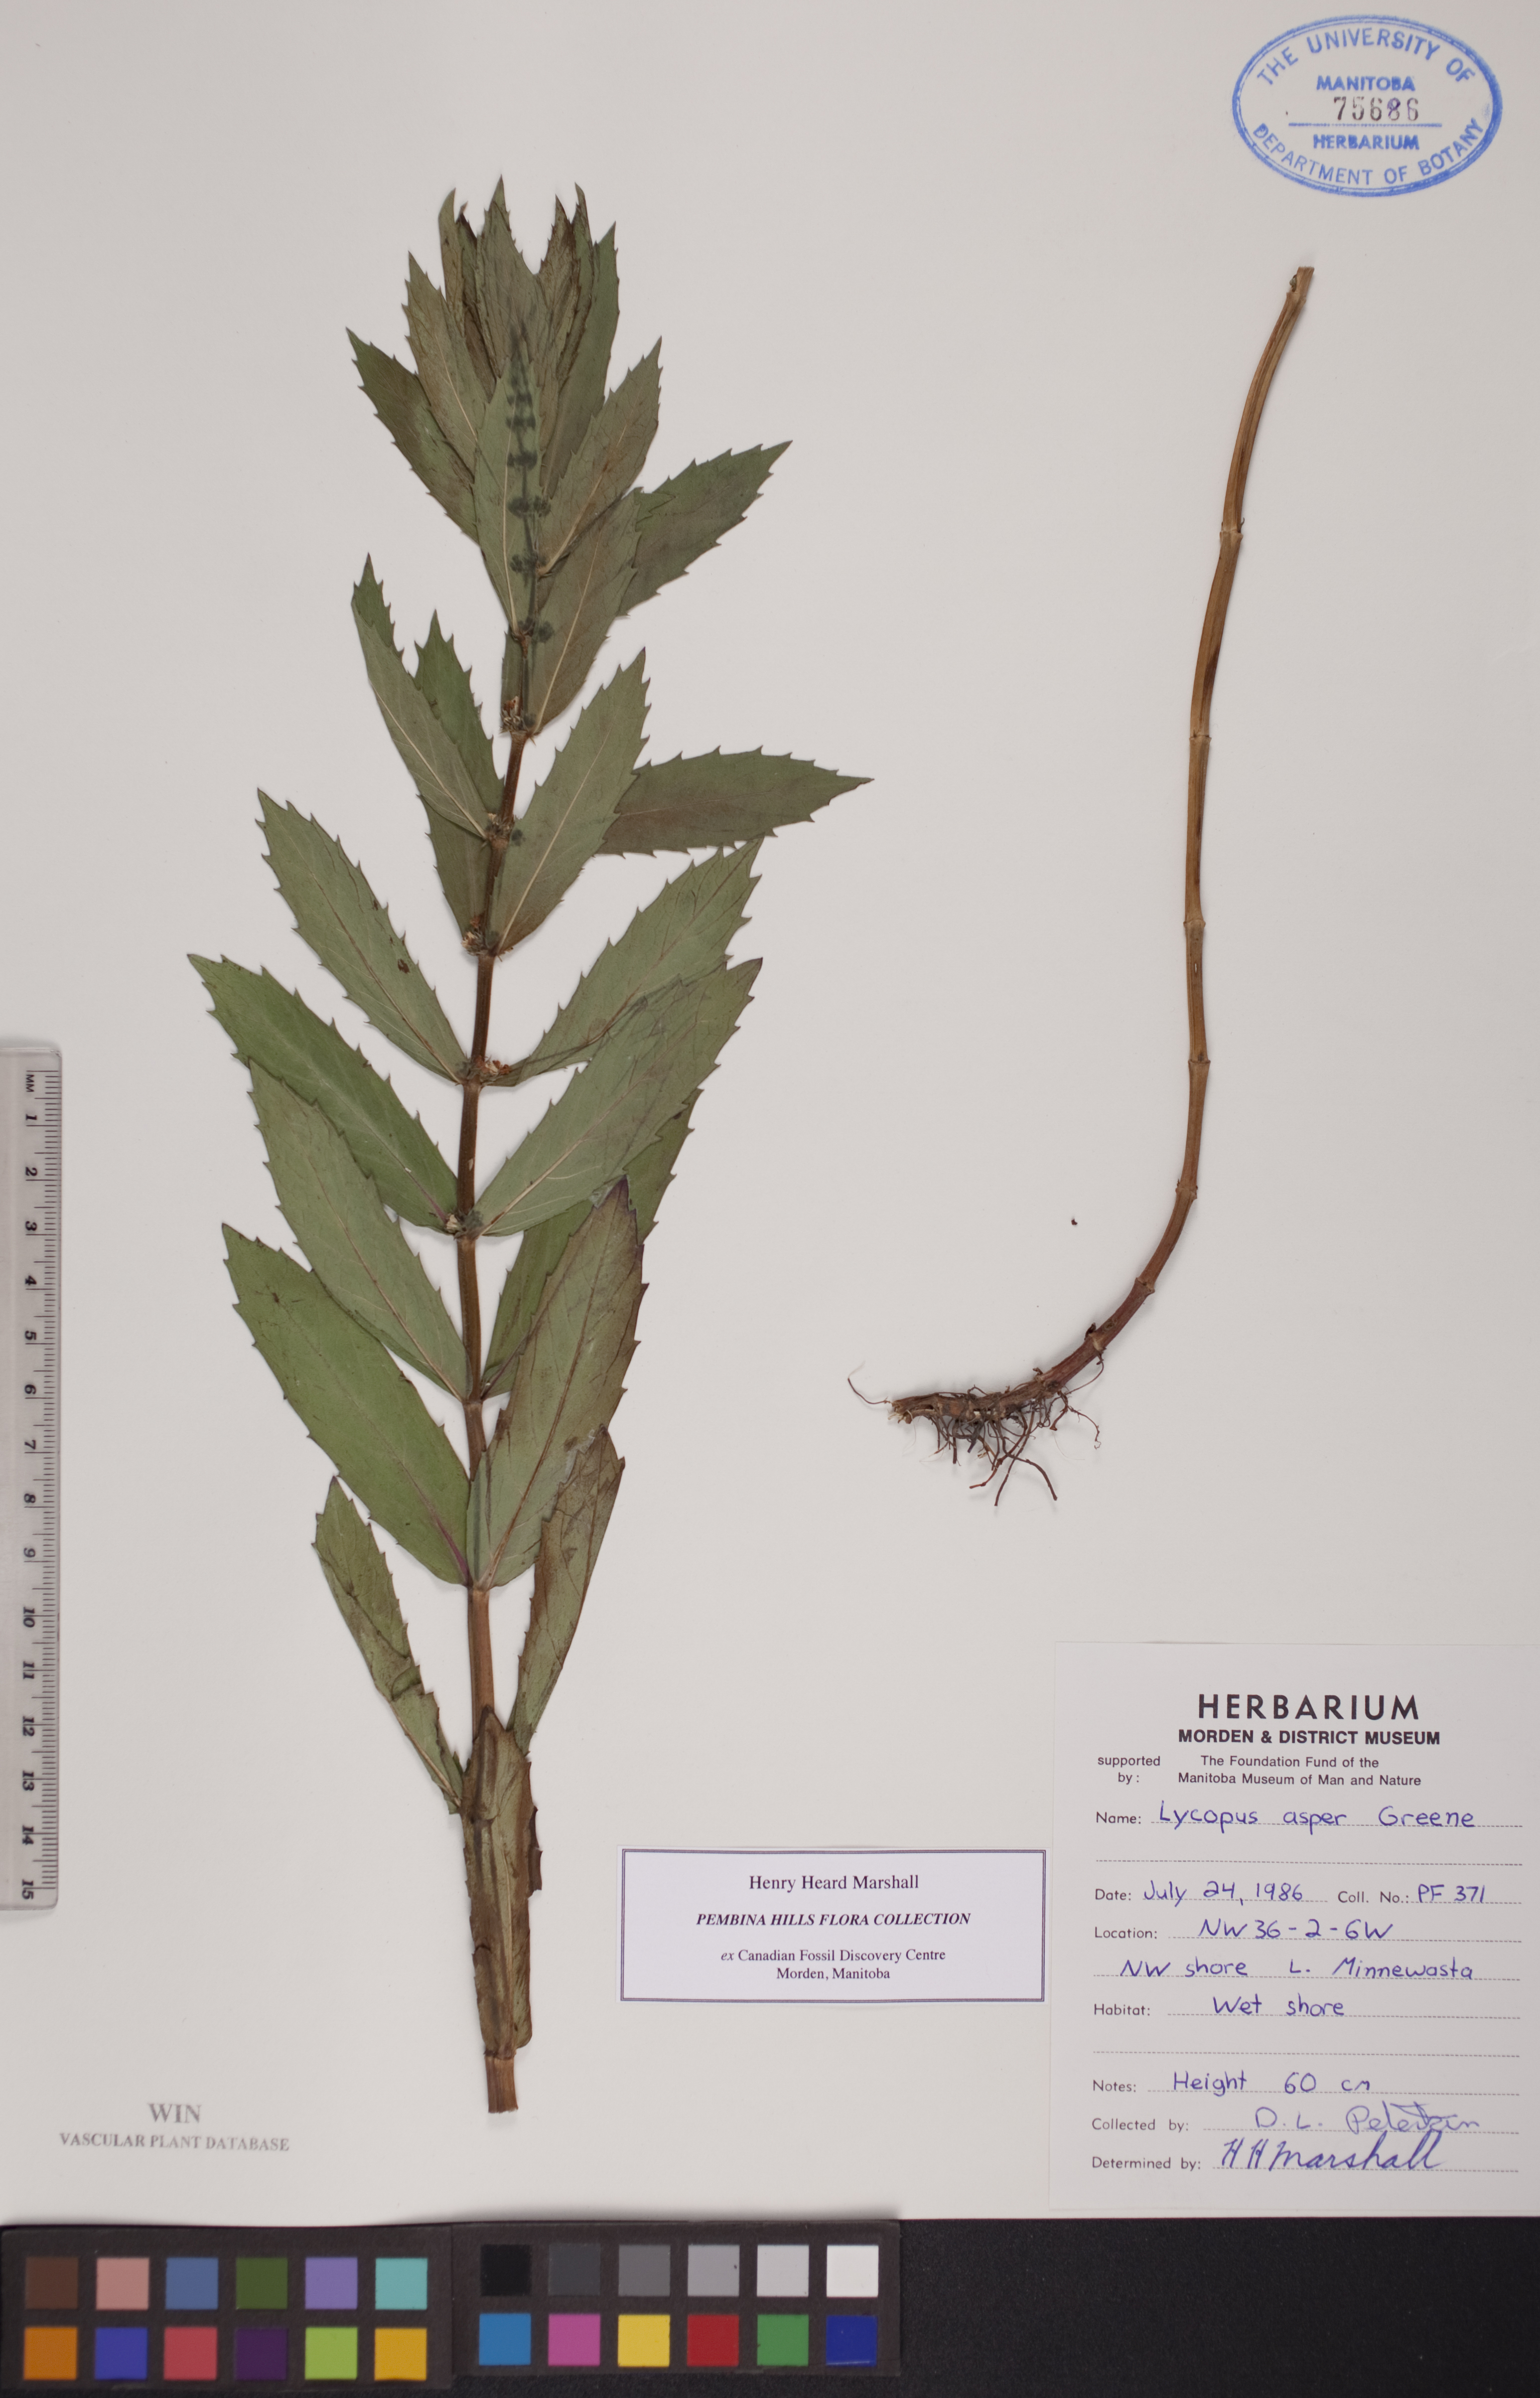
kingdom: Plantae
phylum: Tracheophyta
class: Magnoliopsida
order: Lamiales
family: Lamiaceae
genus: Lycopus
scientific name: Lycopus asper
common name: Rough water-horehound
